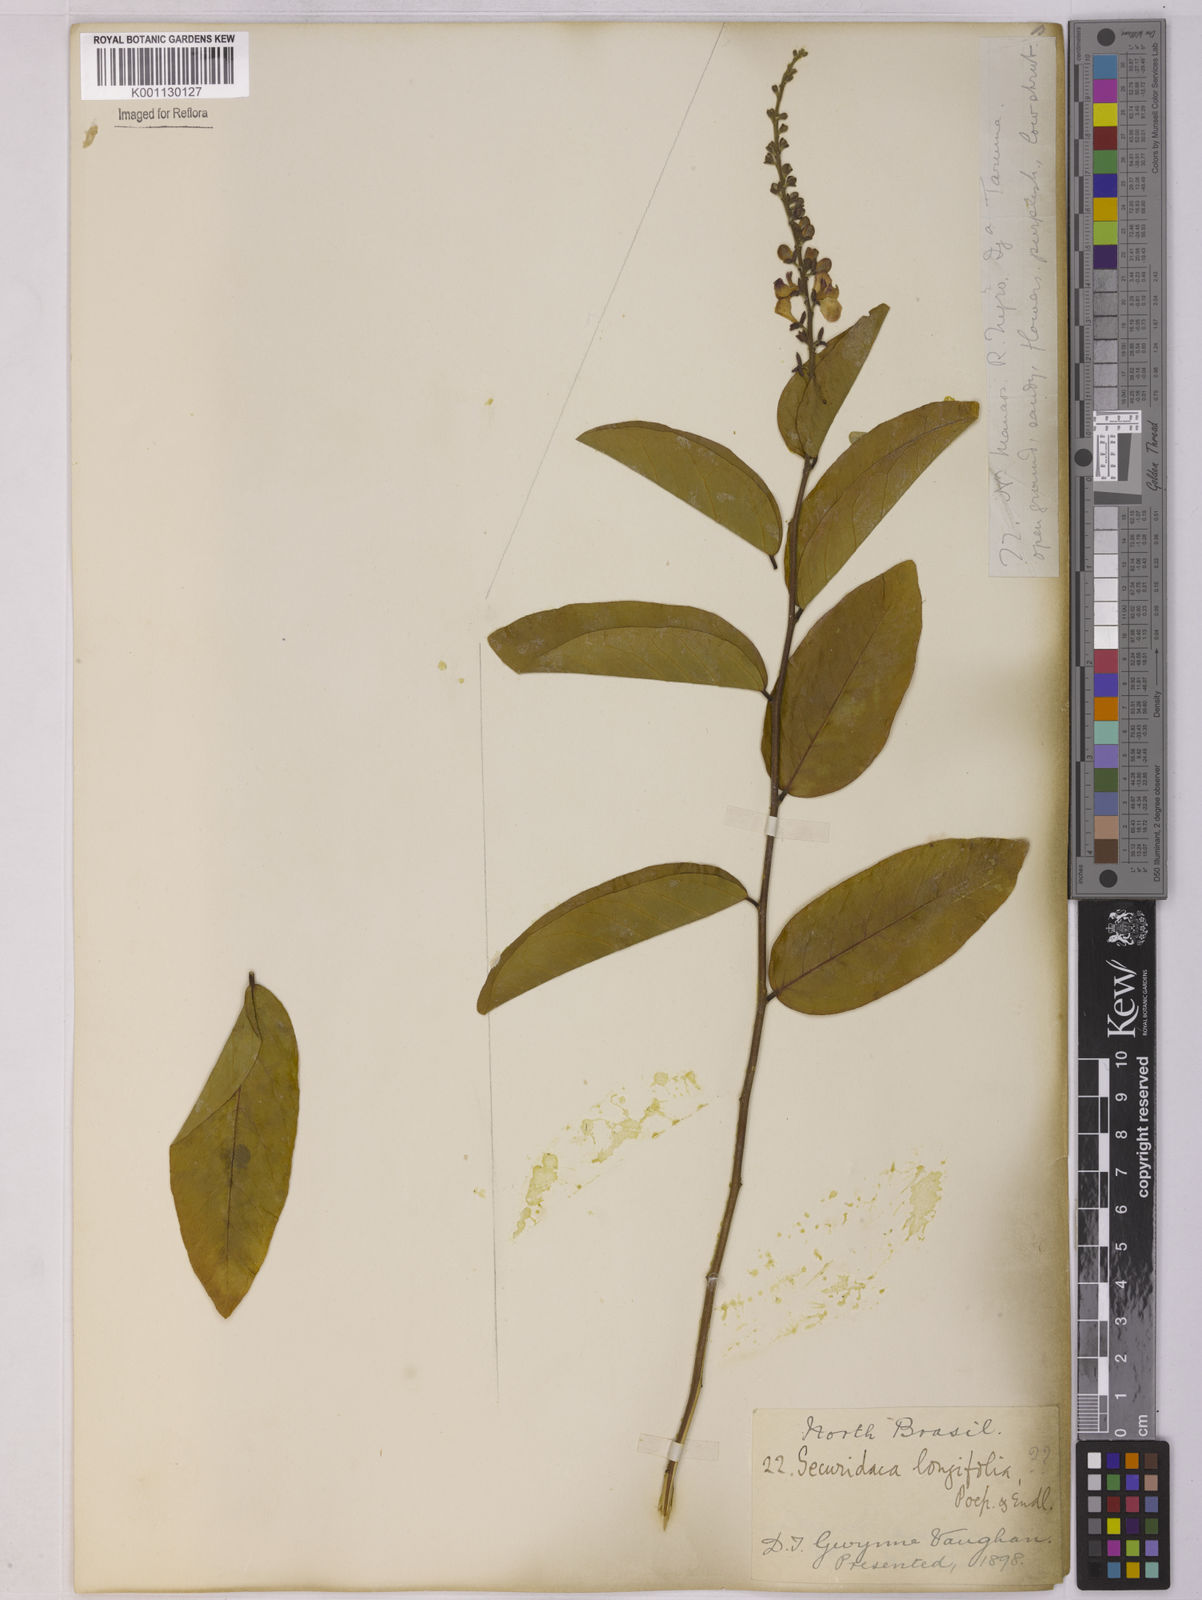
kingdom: Plantae
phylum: Tracheophyta
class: Magnoliopsida
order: Fabales
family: Polygalaceae
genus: Securidaca
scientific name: Securidaca longifolia
